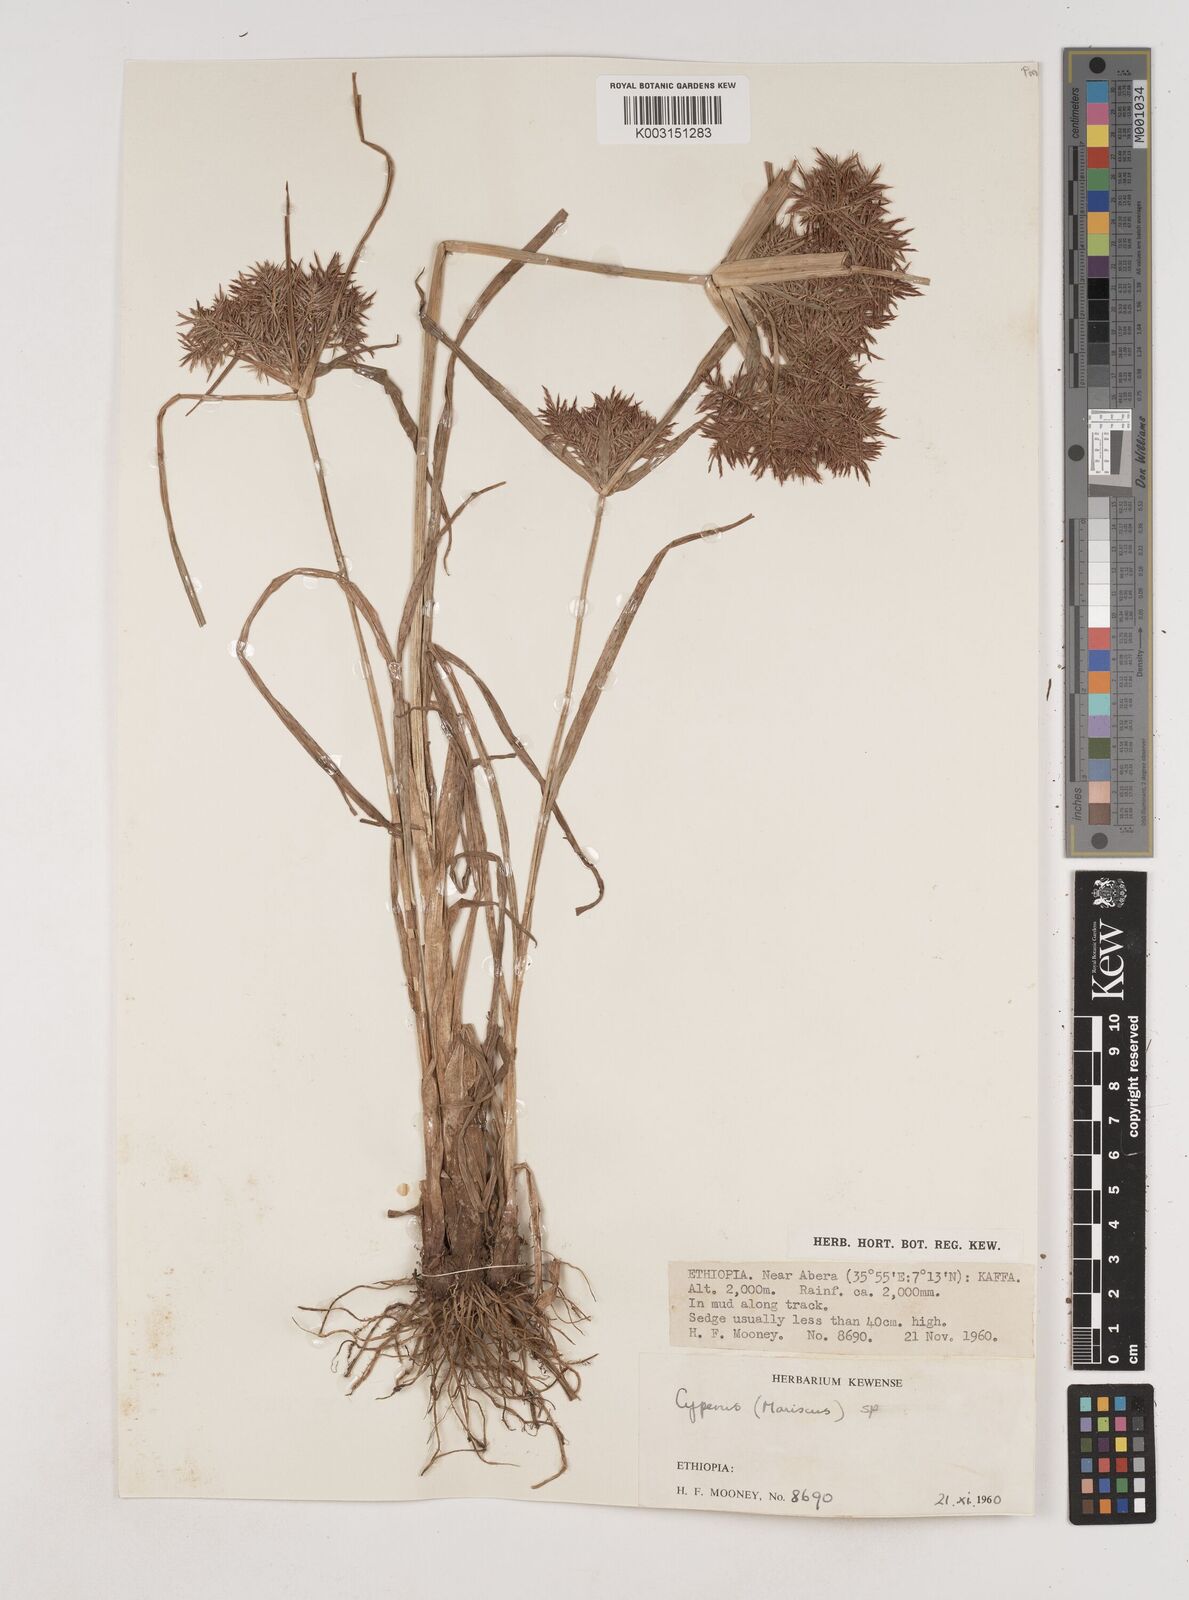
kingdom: Plantae
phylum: Tracheophyta
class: Liliopsida
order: Poales
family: Cyperaceae
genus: Cyperus
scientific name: Cyperus distans
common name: Slender cyperus
